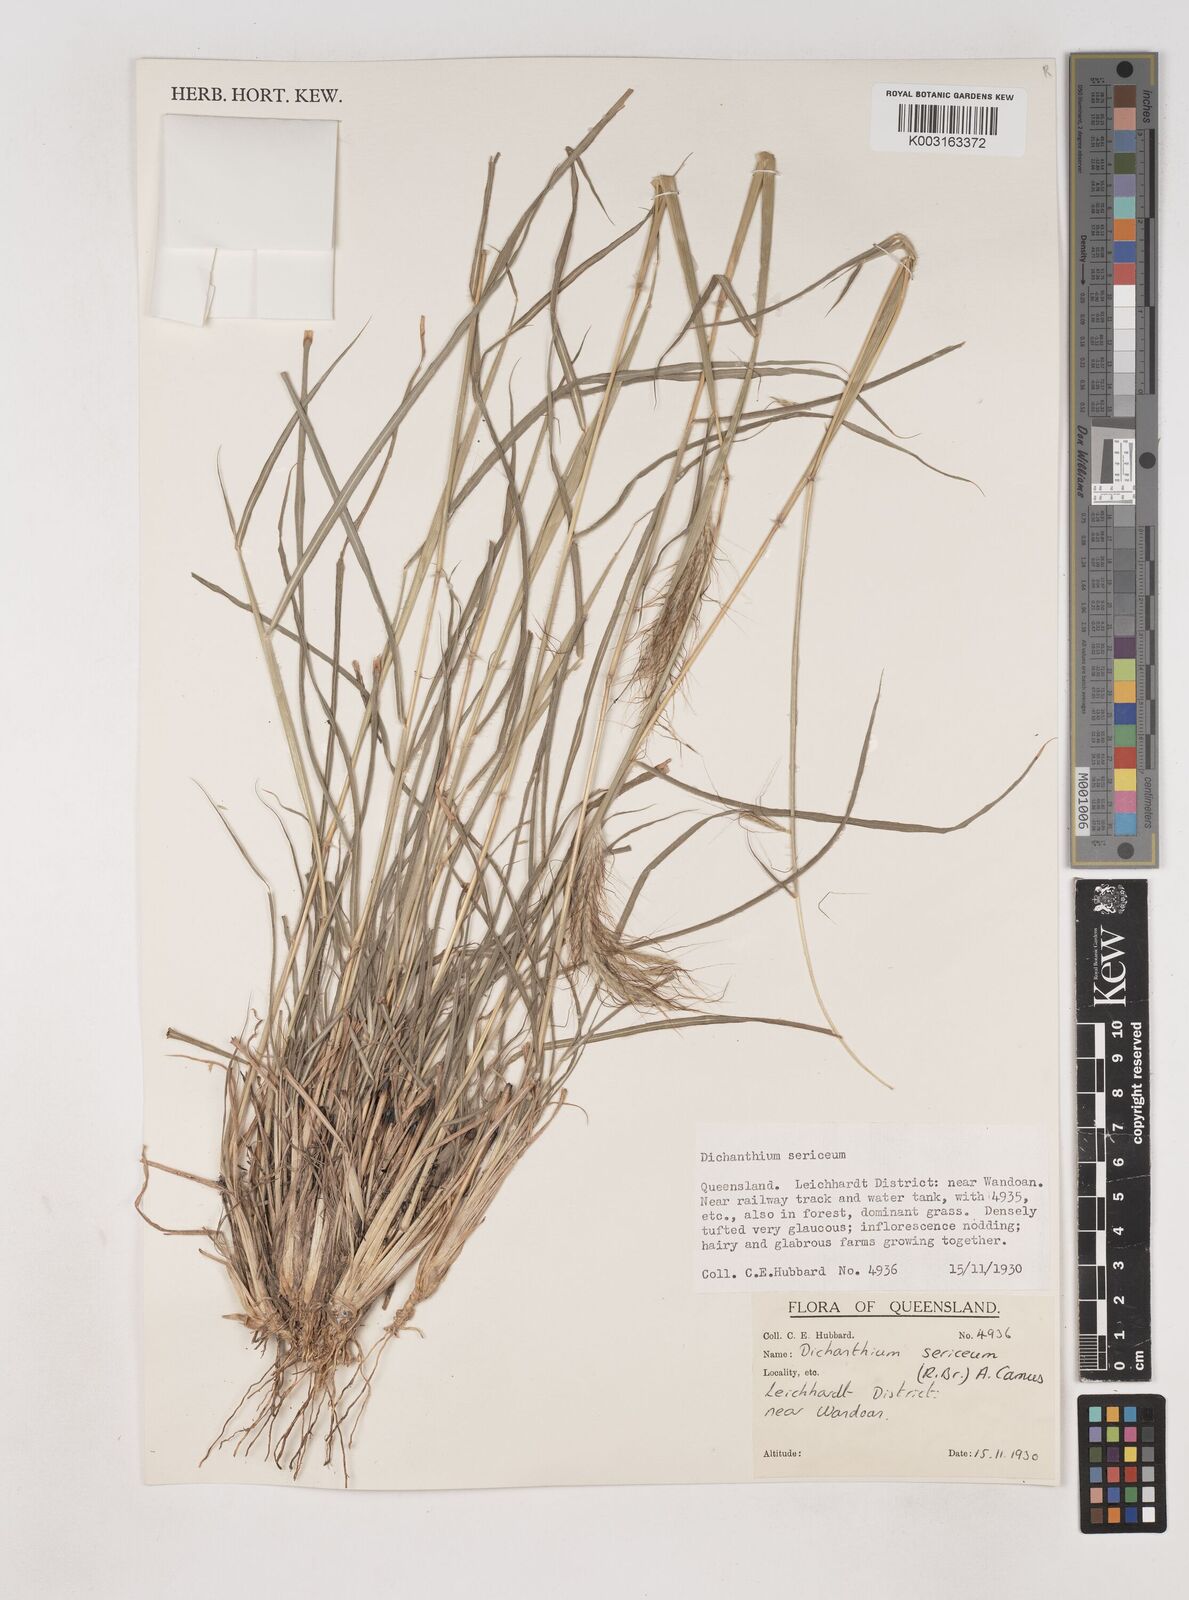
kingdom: Plantae
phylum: Tracheophyta
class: Liliopsida
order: Poales
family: Poaceae
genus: Dichanthium
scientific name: Dichanthium sericeum
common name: Silky bluestem
